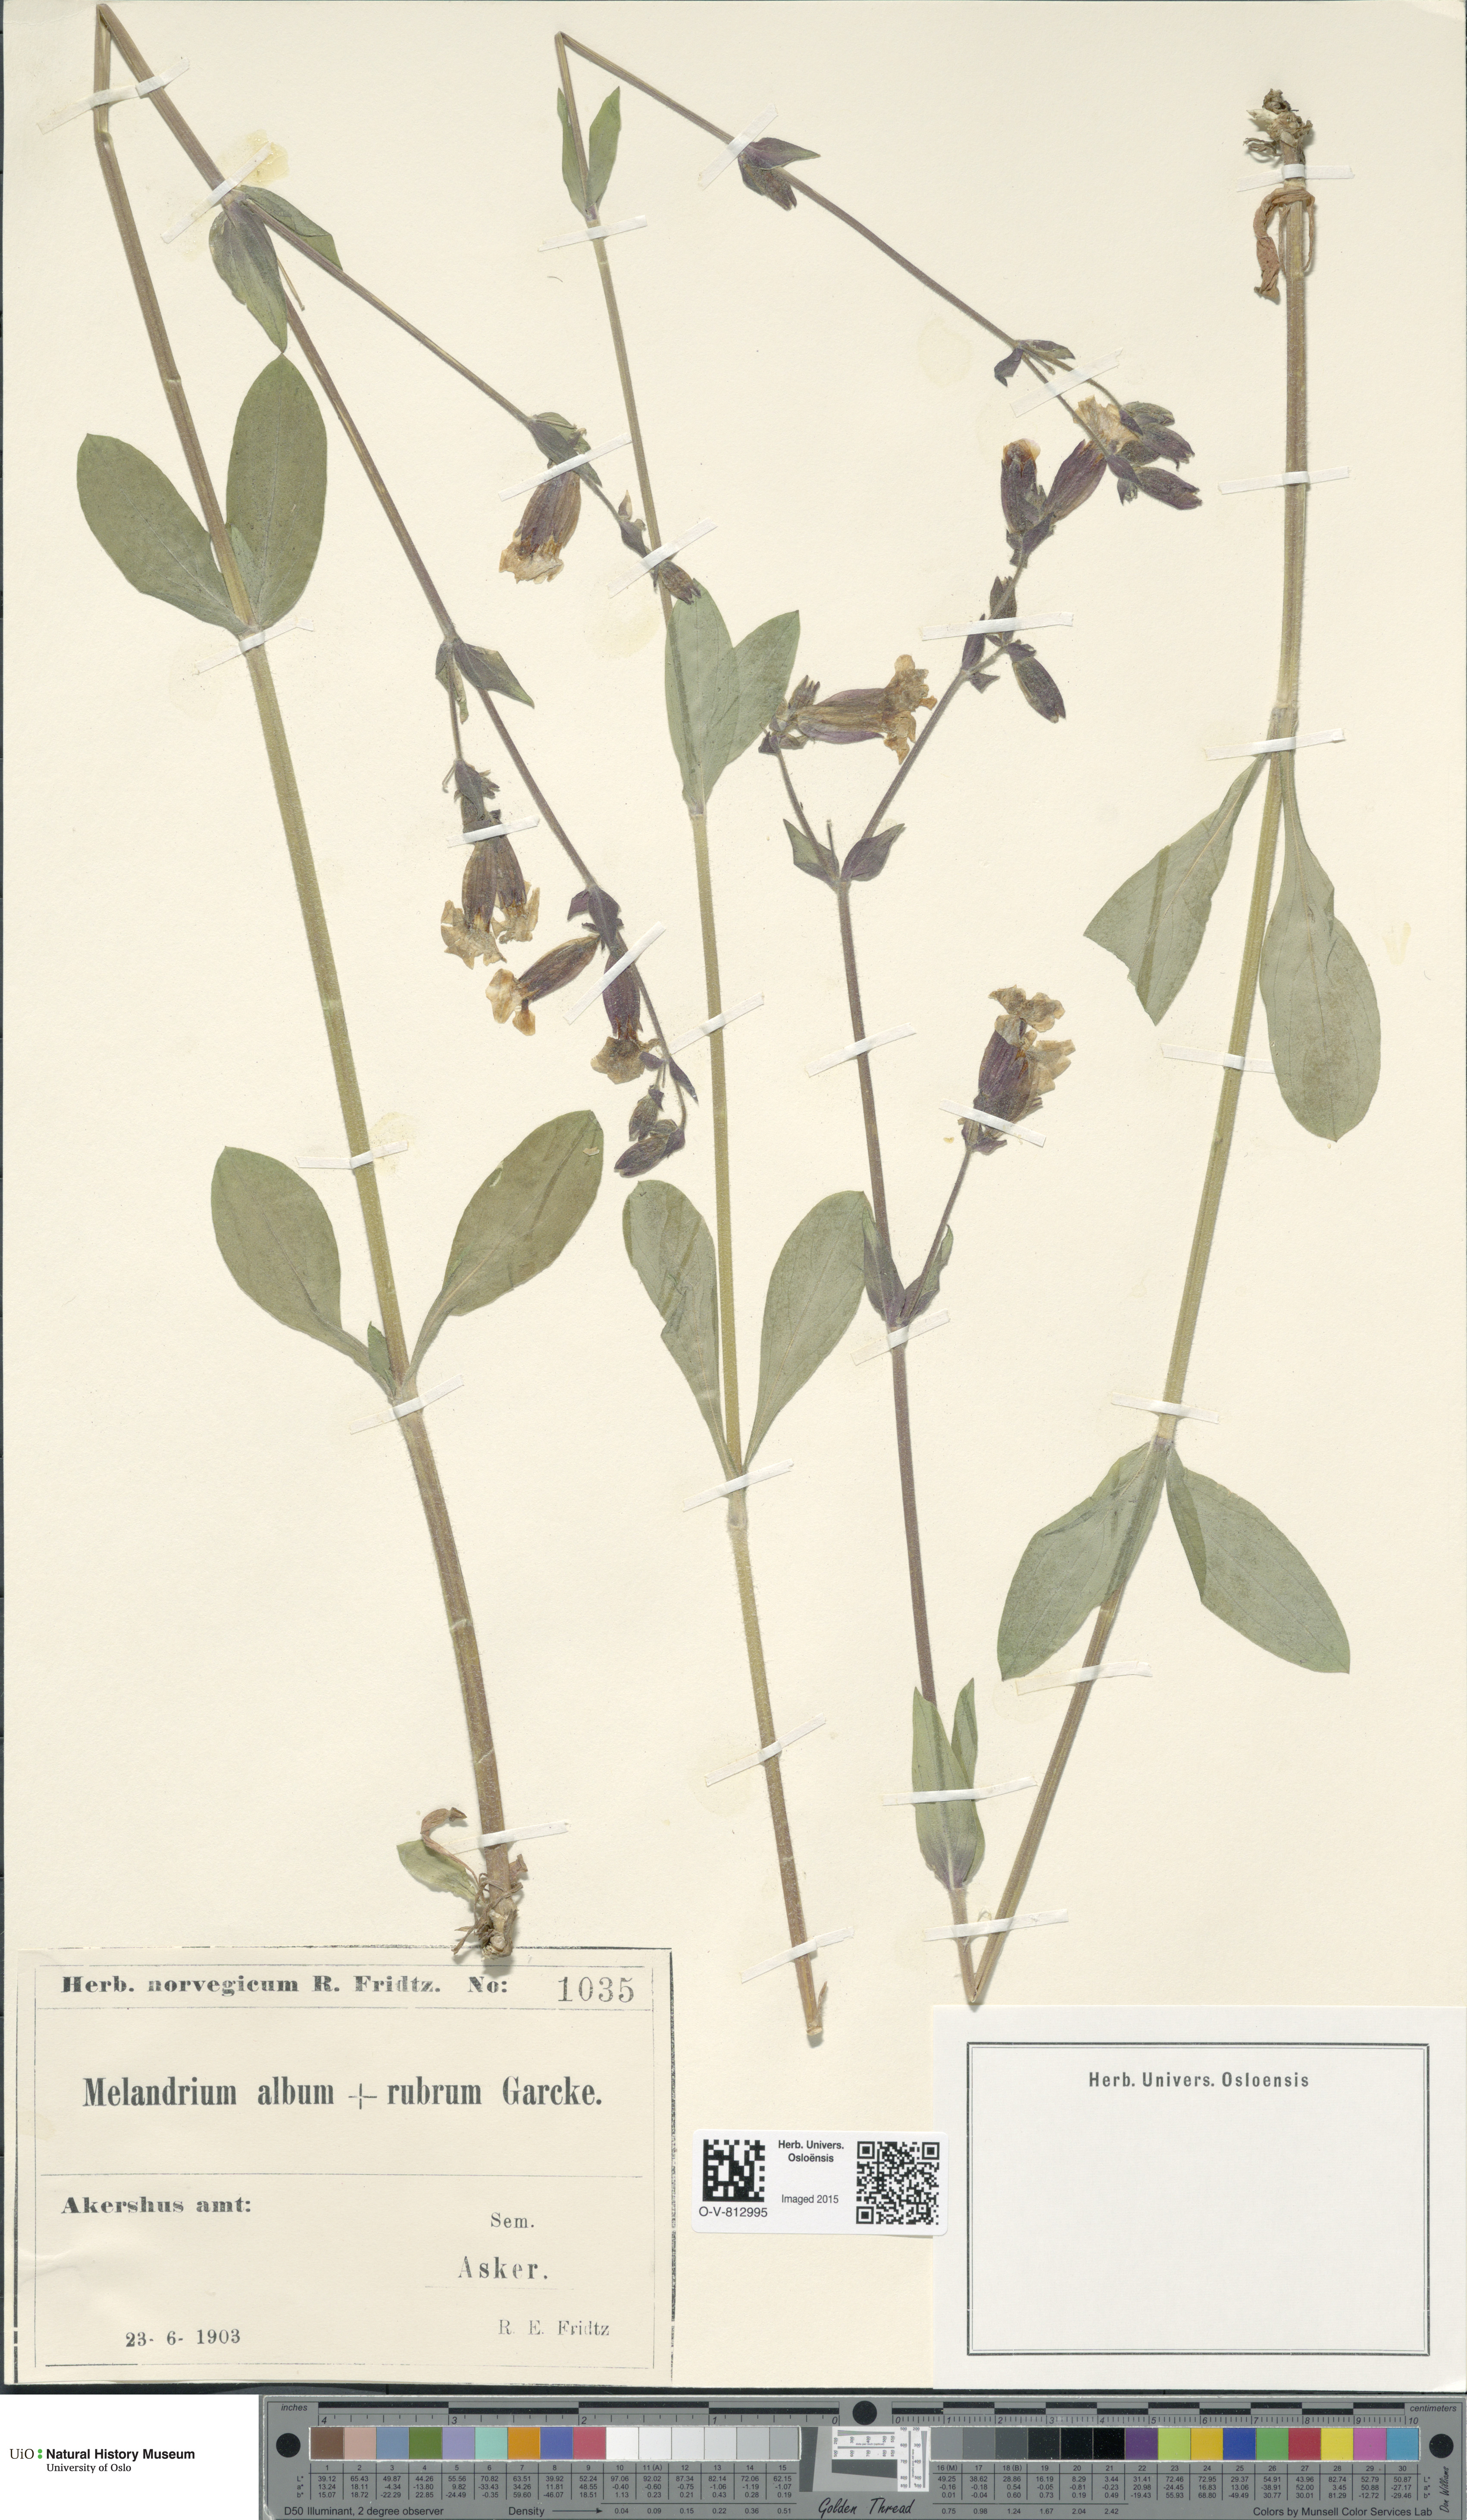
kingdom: Plantae
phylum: Tracheophyta
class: Magnoliopsida
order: Caryophyllales
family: Caryophyllaceae
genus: Silene
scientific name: Silene
